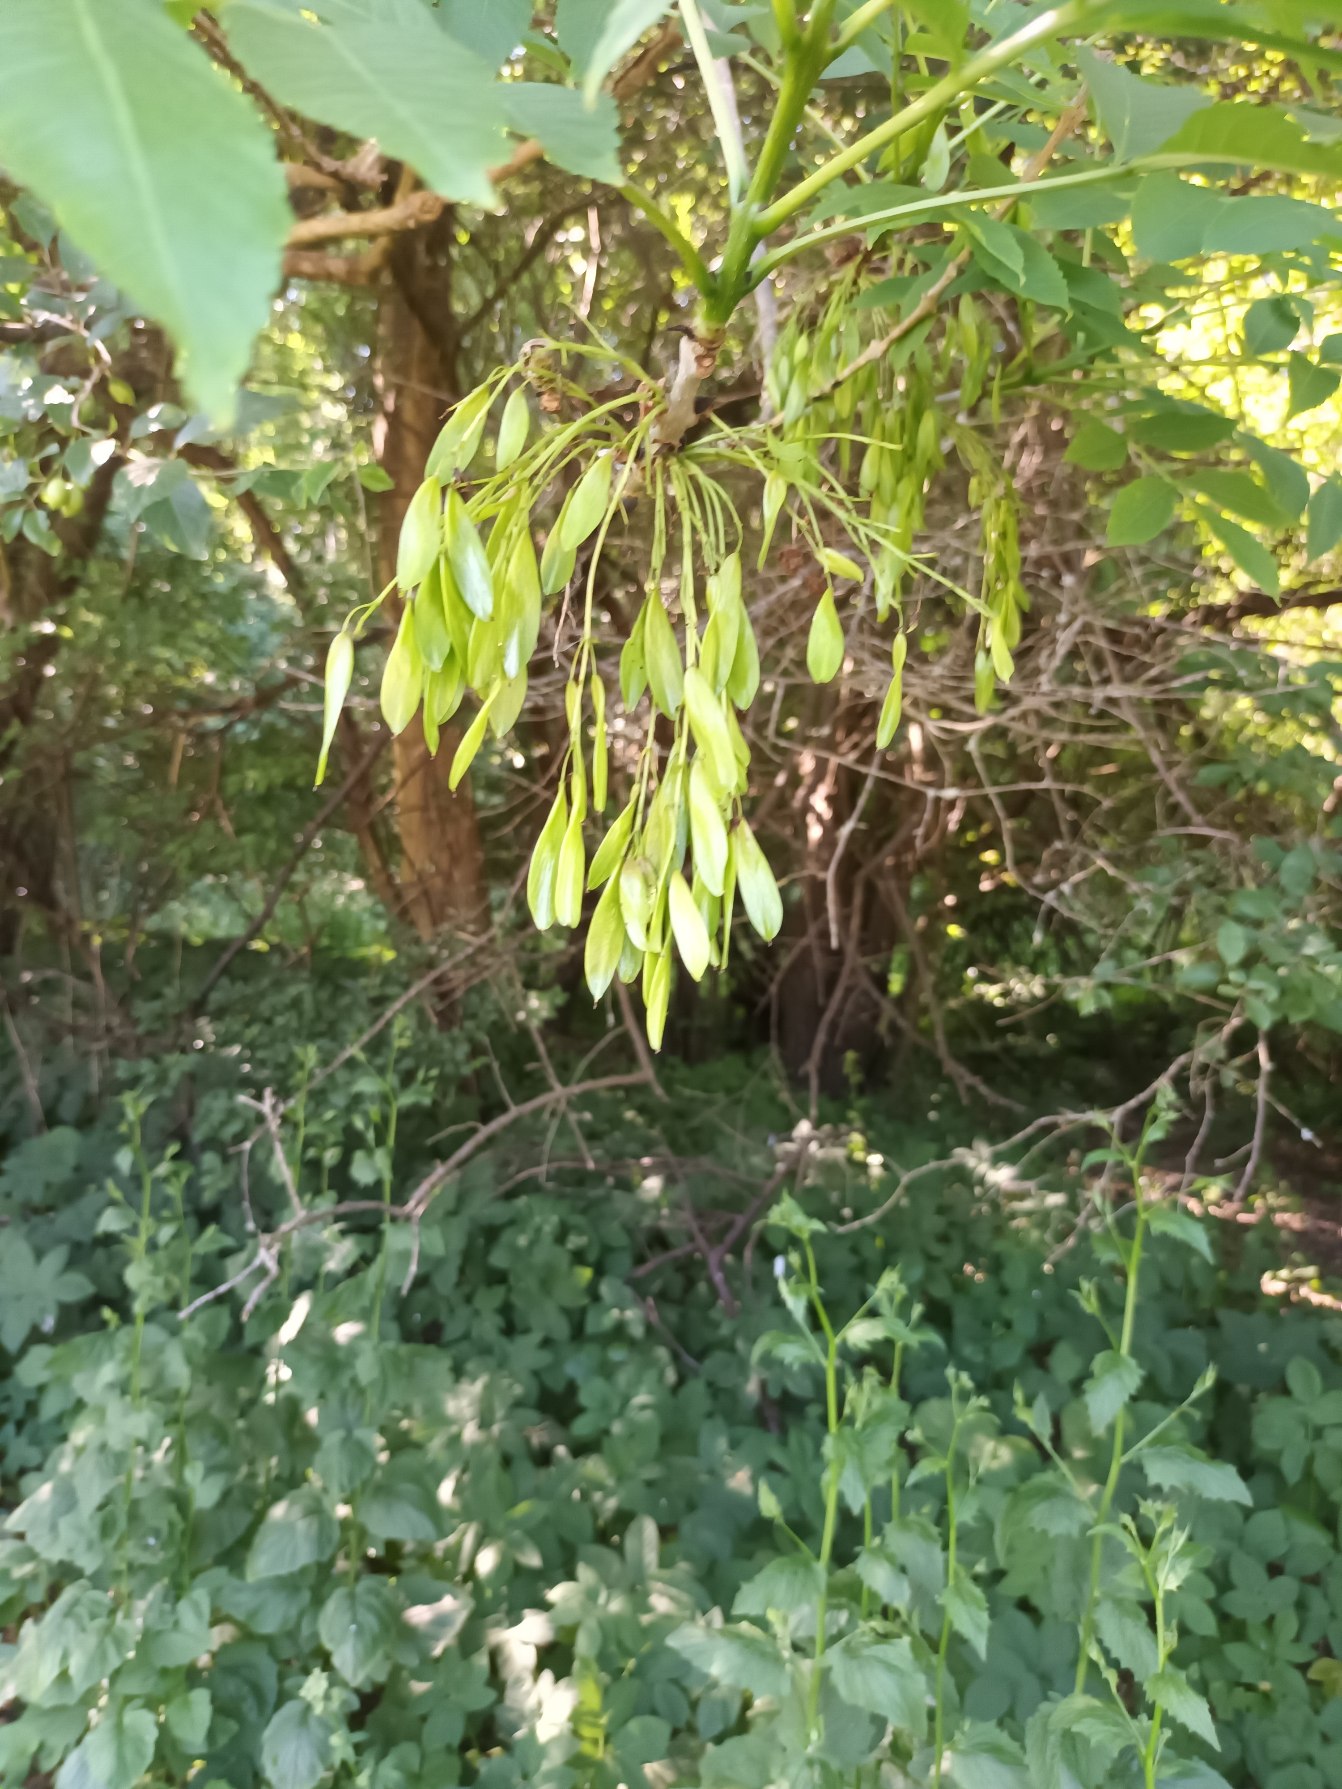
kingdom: Plantae
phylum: Tracheophyta
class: Magnoliopsida
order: Lamiales
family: Oleaceae
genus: Fraxinus
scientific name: Fraxinus excelsior
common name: Ask
